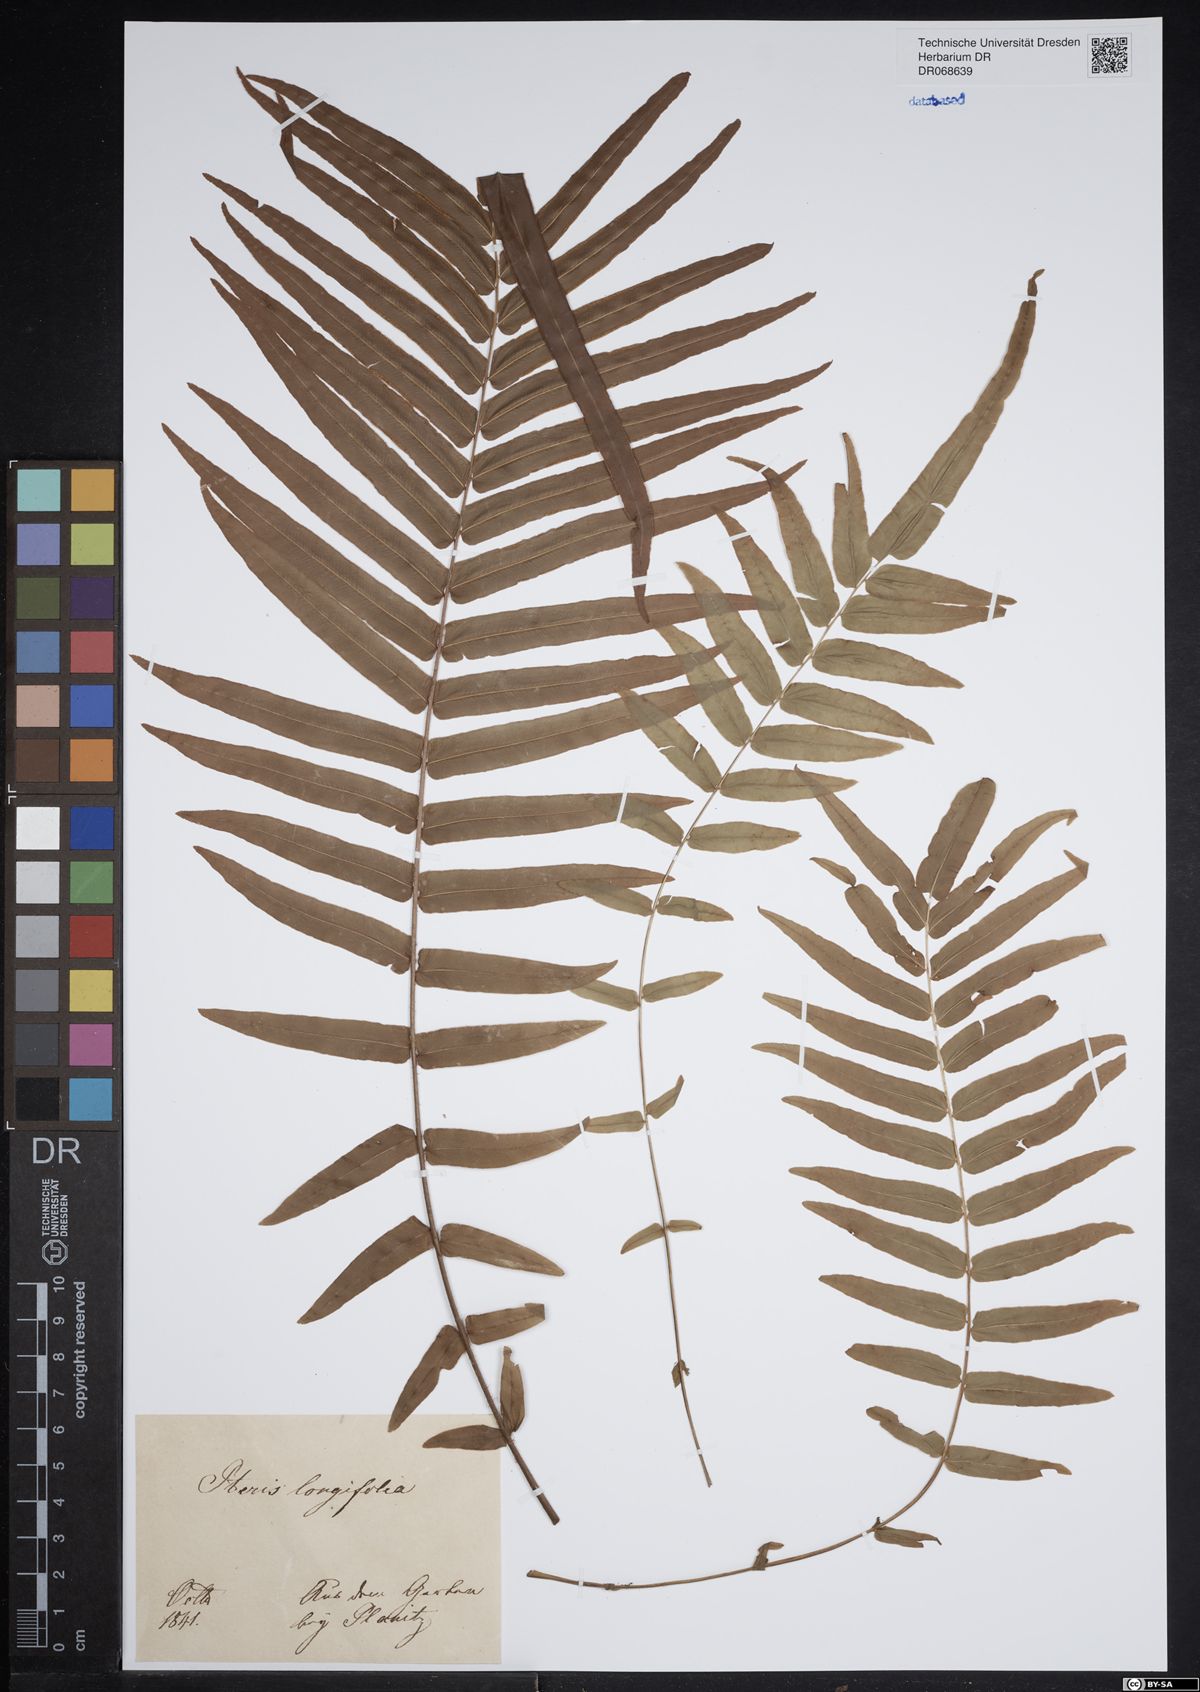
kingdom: Plantae
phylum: Tracheophyta
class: Polypodiopsida
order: Polypodiales
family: Dennstaedtiaceae
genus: Blotiella
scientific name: Blotiella pubescens
